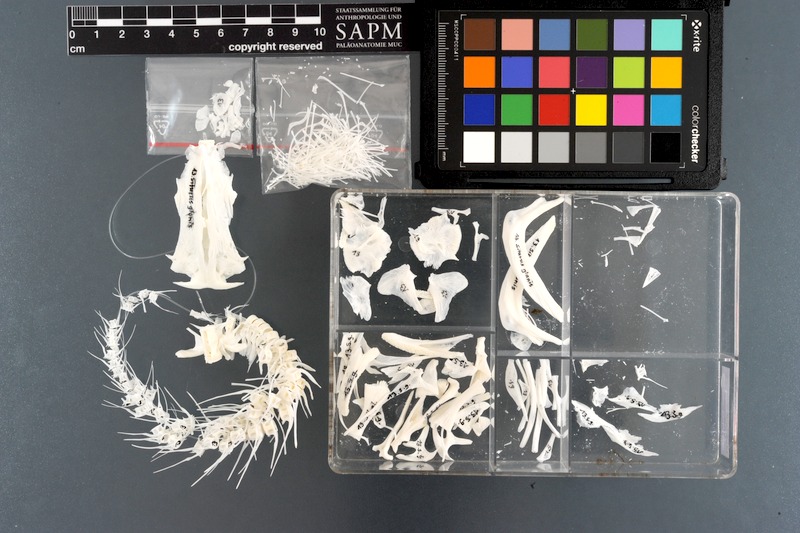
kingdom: Animalia
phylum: Chordata
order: Siluriformes
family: Siluridae
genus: Silurus
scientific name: Silurus glanis
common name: Wels
